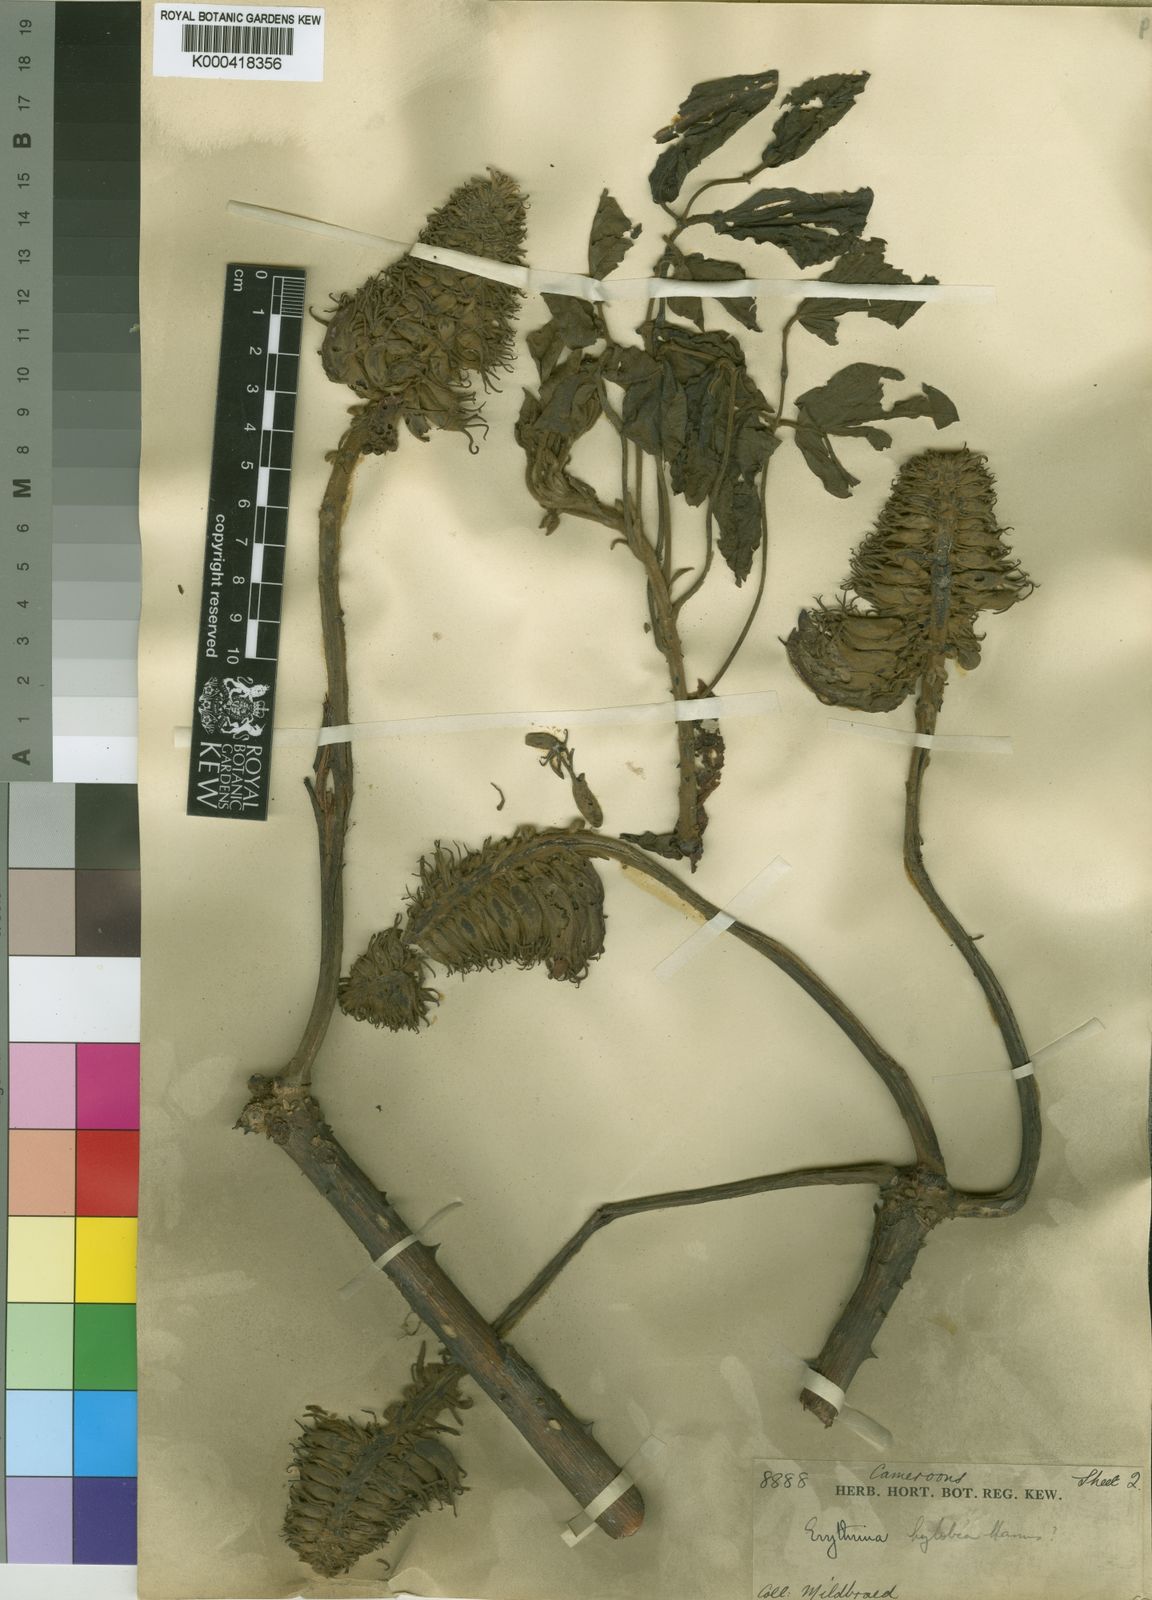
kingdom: Plantae
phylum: Tracheophyta
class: Magnoliopsida
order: Fabales
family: Fabaceae
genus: Erythrina
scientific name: Erythrina droogmansiana
